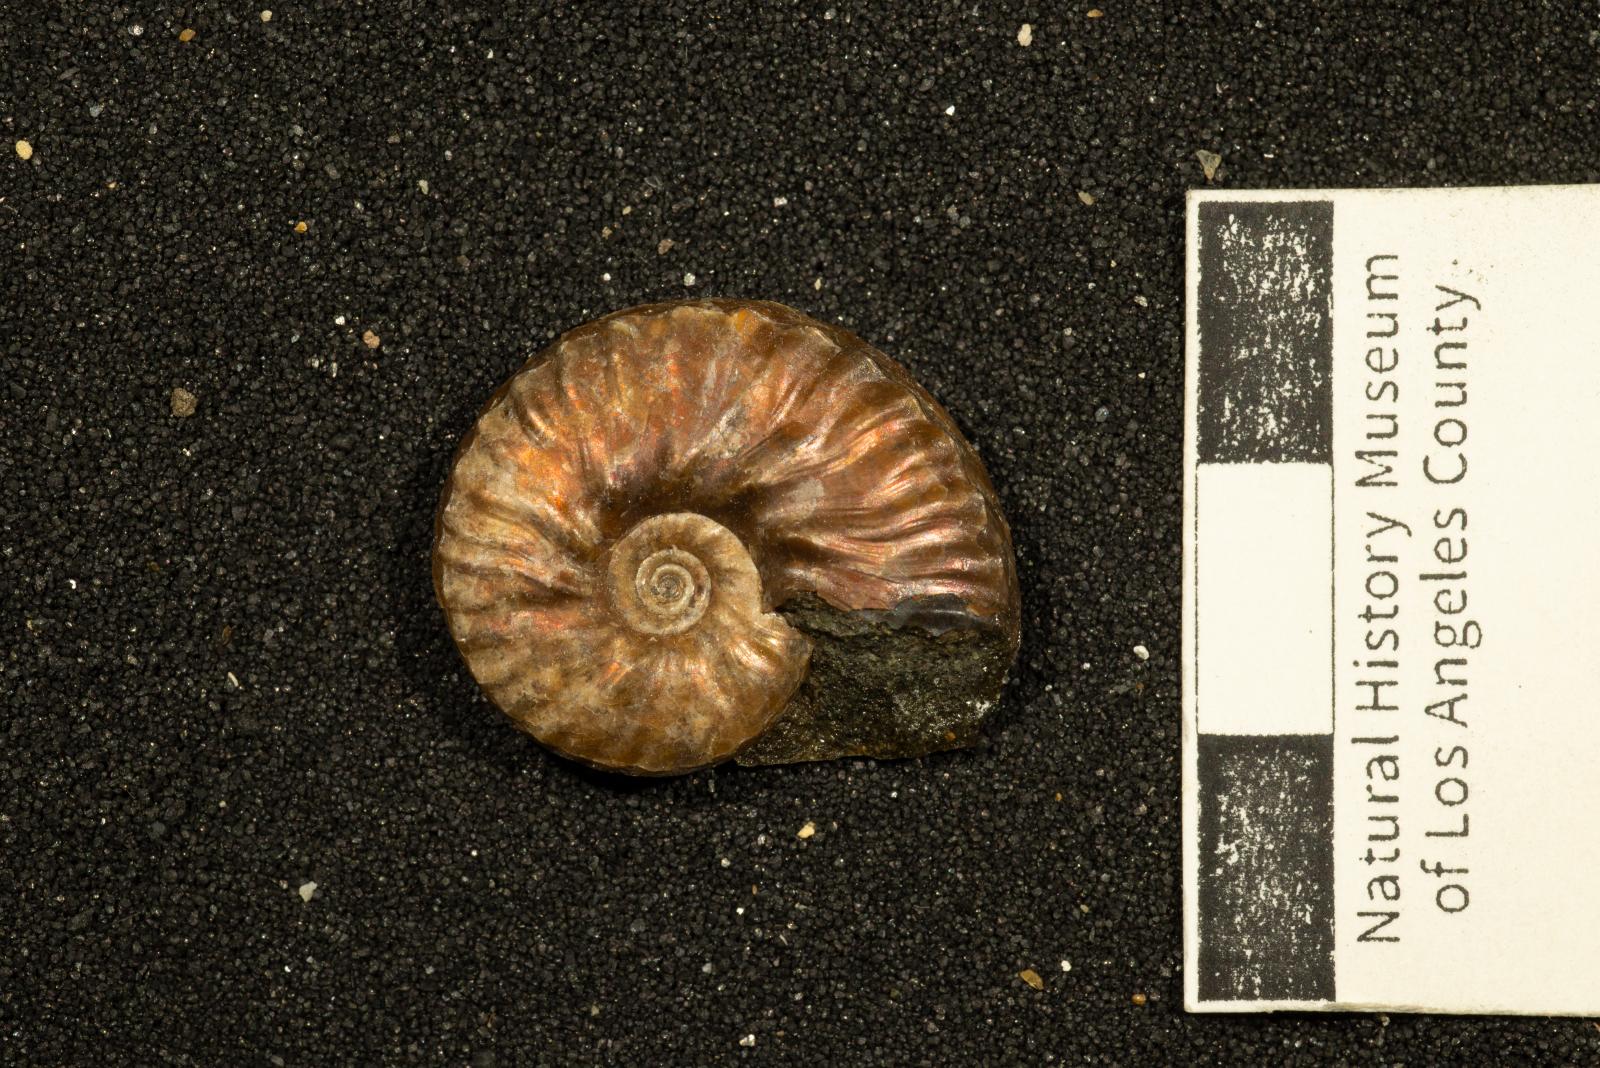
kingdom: Animalia
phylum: Mollusca
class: Cephalopoda
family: Collignoniceratidae
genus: Subprionocyclus
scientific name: Subprionocyclus
